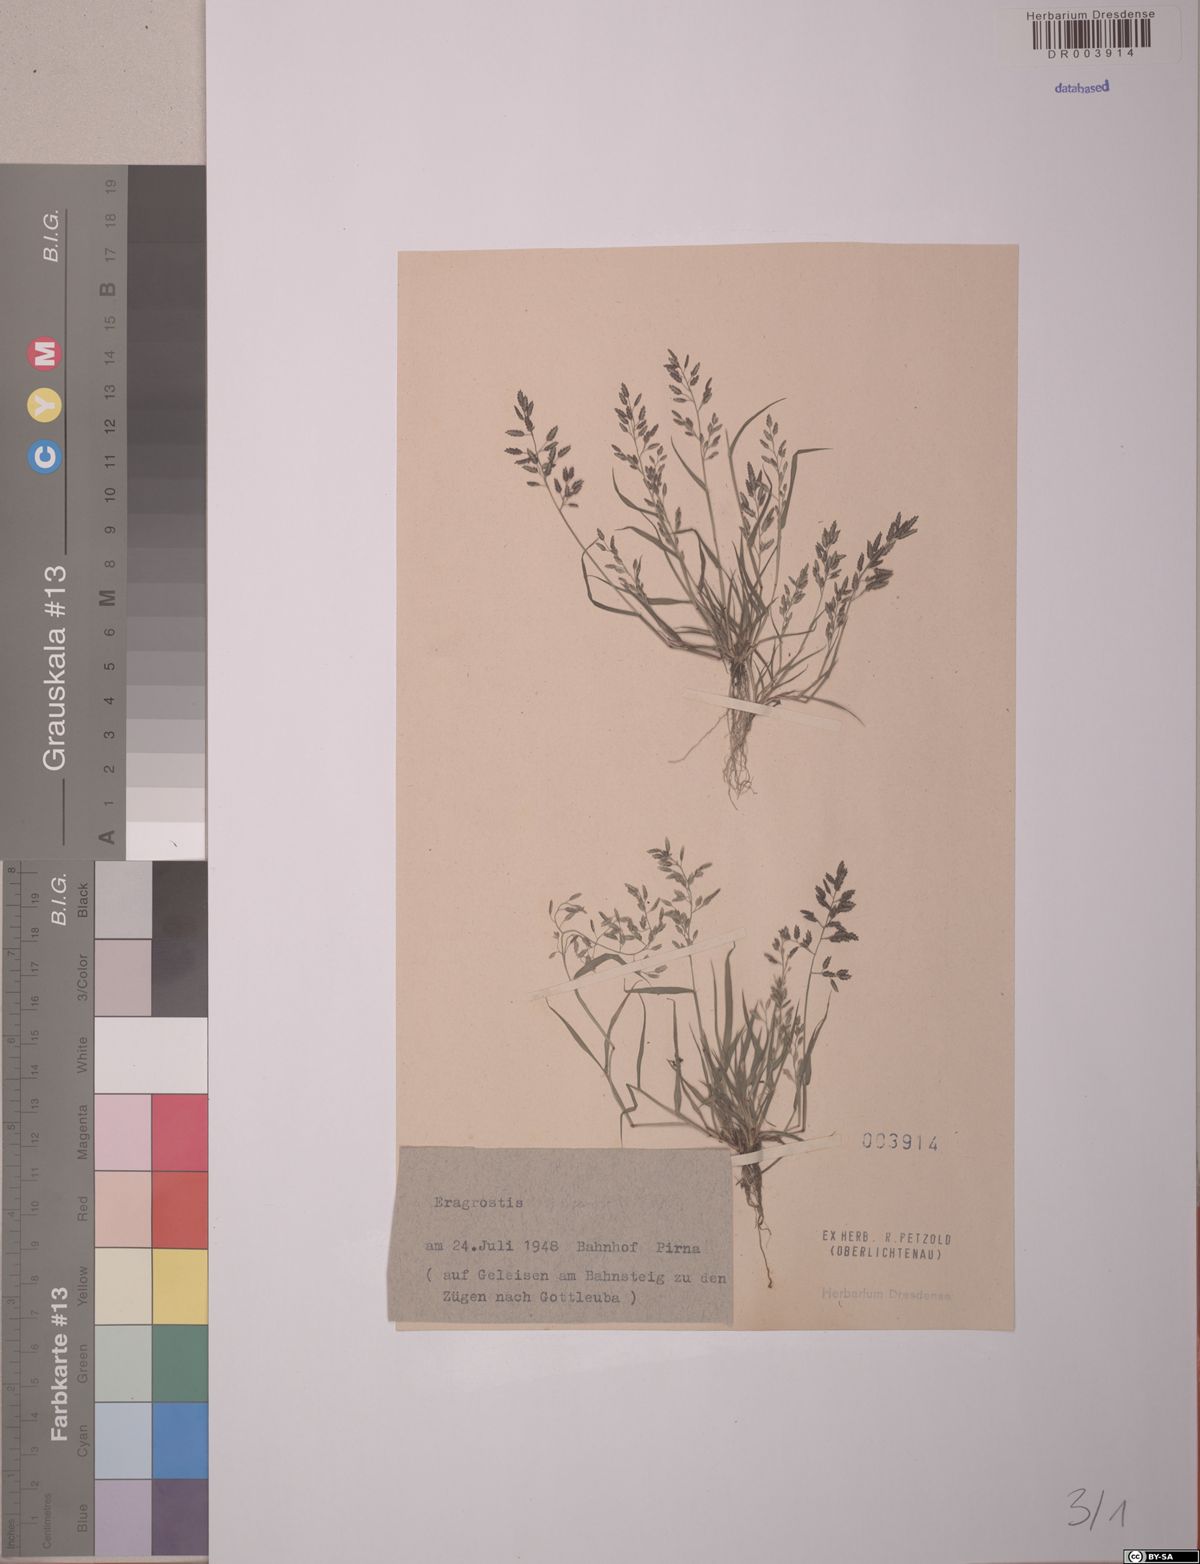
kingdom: Plantae
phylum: Tracheophyta
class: Liliopsida
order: Poales
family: Poaceae
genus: Eragrostis
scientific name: Eragrostis minor
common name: Small love-grass
